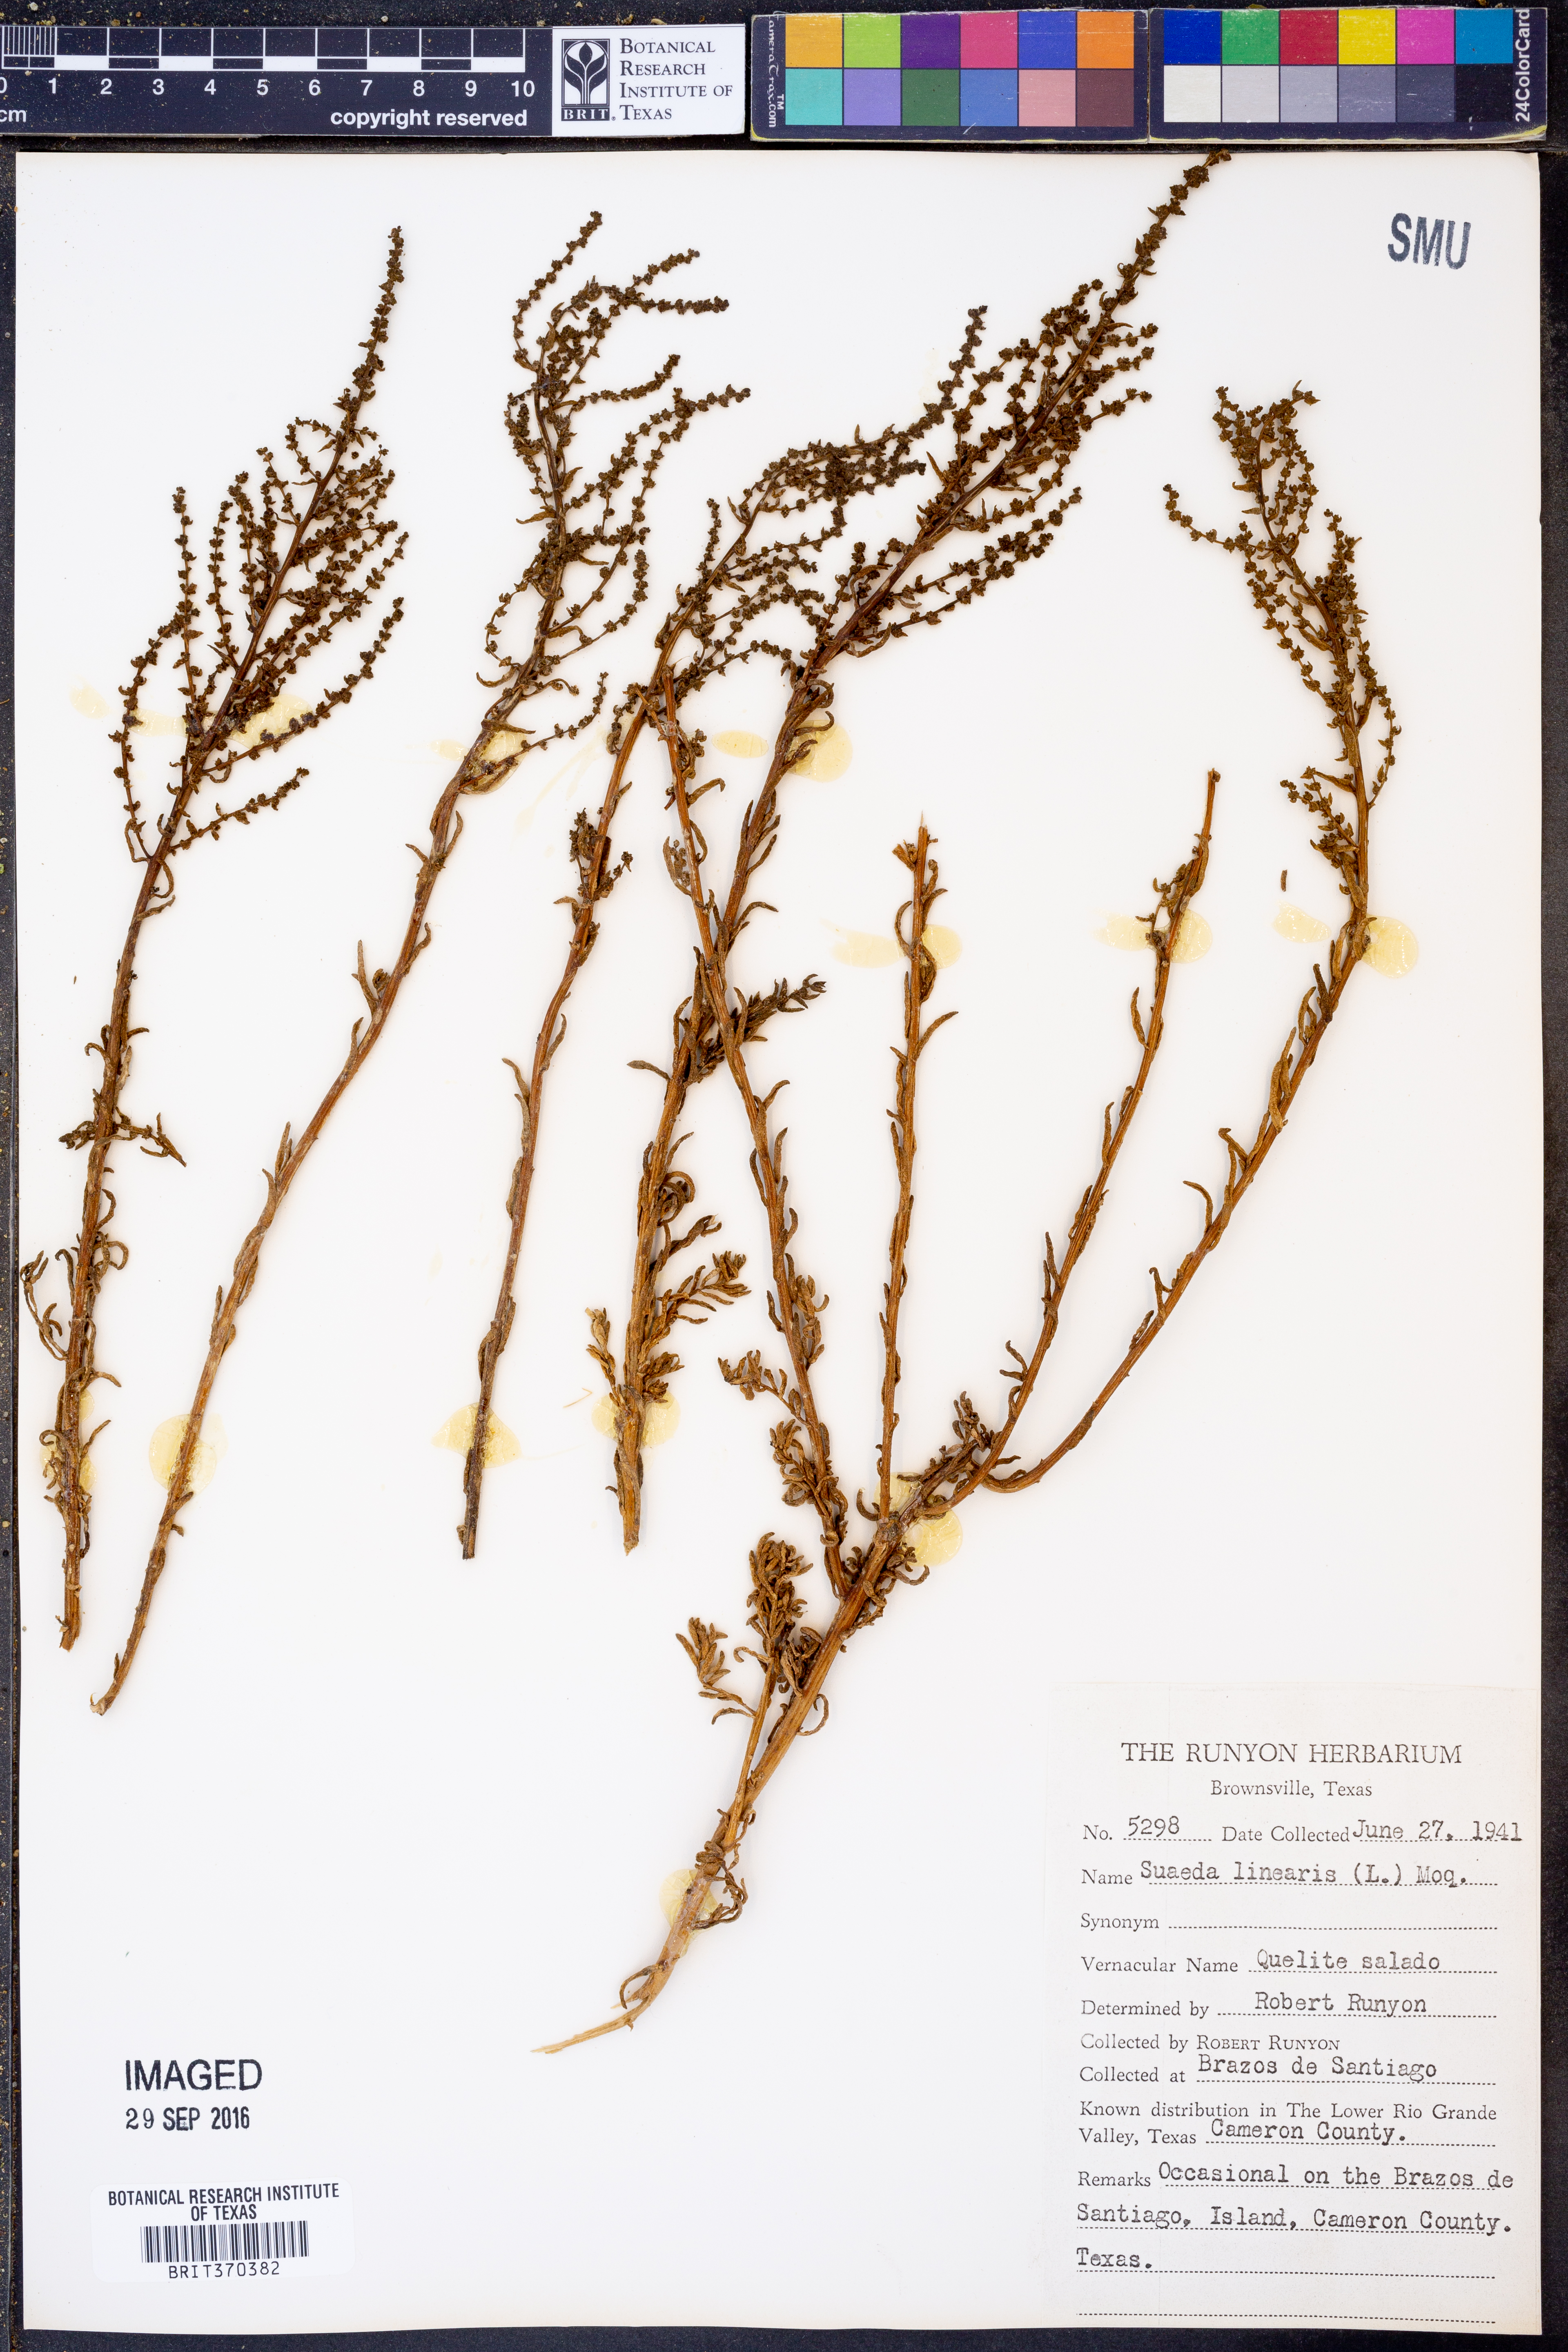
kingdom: Plantae
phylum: Tracheophyta
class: Magnoliopsida
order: Caryophyllales
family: Amaranthaceae
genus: Suaeda
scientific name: Suaeda linearis
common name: Annual seepweed
